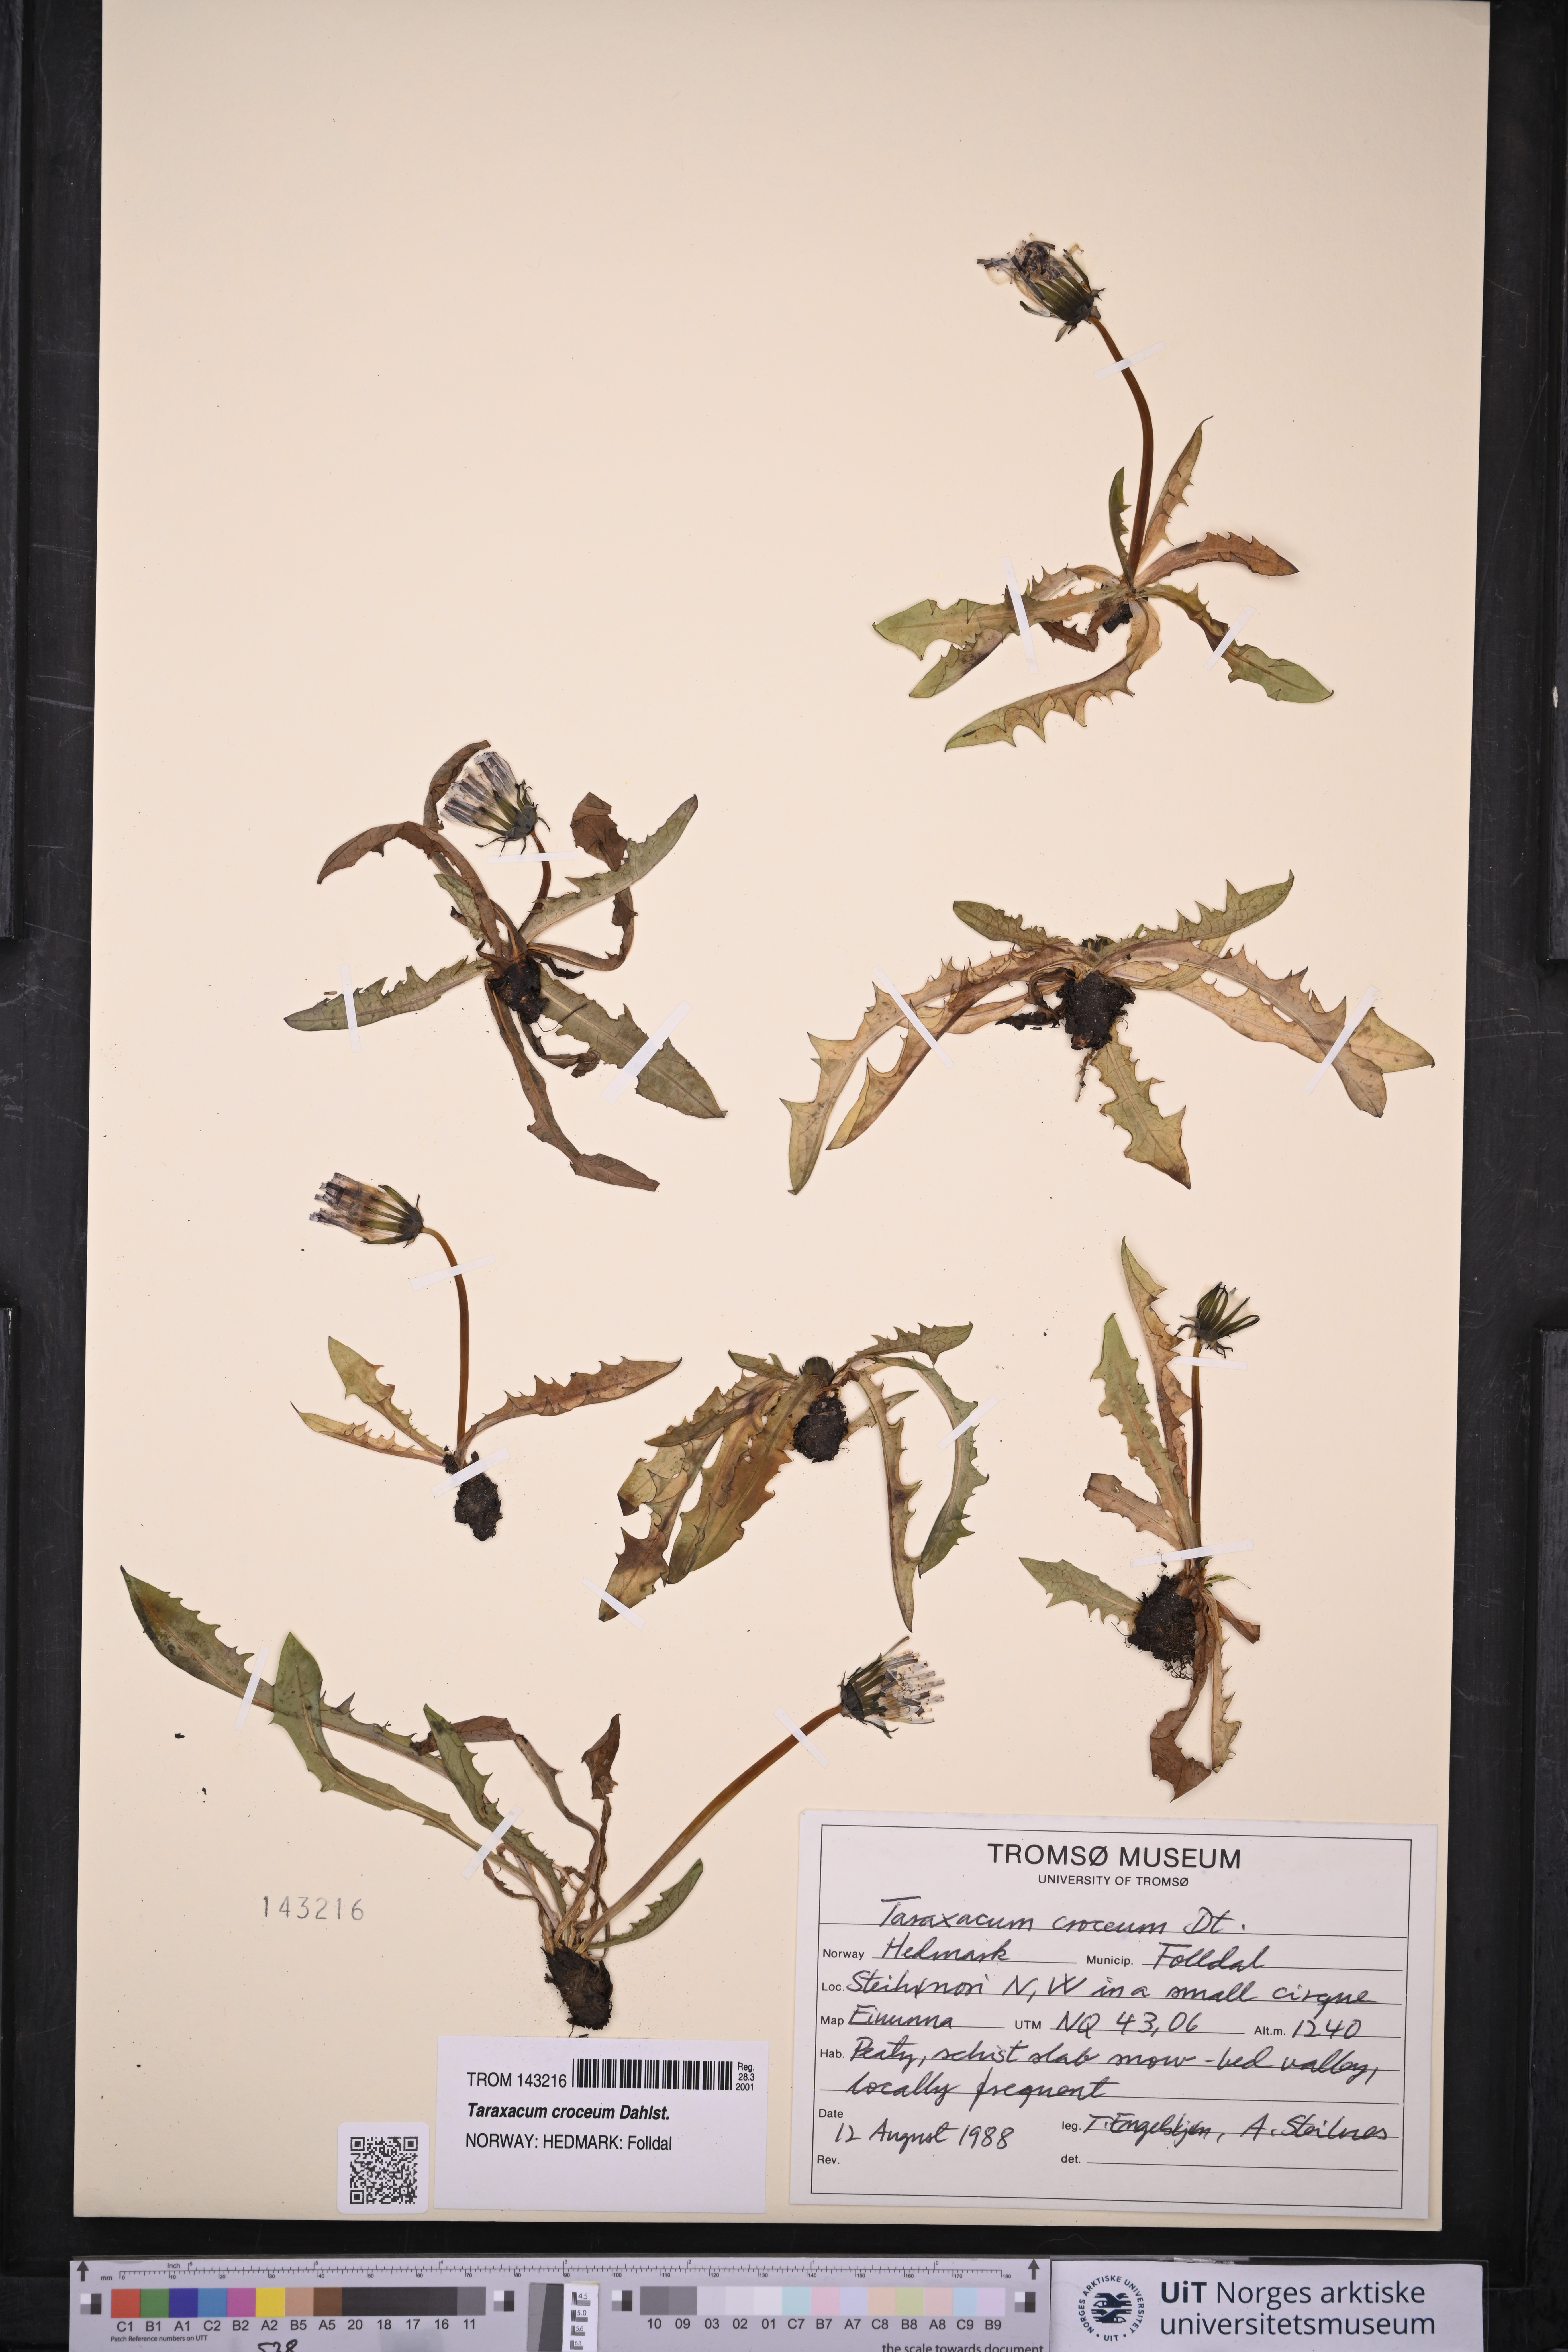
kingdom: Plantae
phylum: Tracheophyta
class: Magnoliopsida
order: Asterales
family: Asteraceae
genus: Taraxacum
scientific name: Taraxacum croceum
